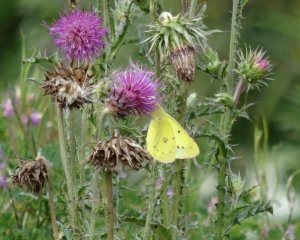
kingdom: Animalia
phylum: Arthropoda
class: Insecta
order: Lepidoptera
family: Pieridae
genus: Colias
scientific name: Colias philodice
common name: Clouded Sulphur
